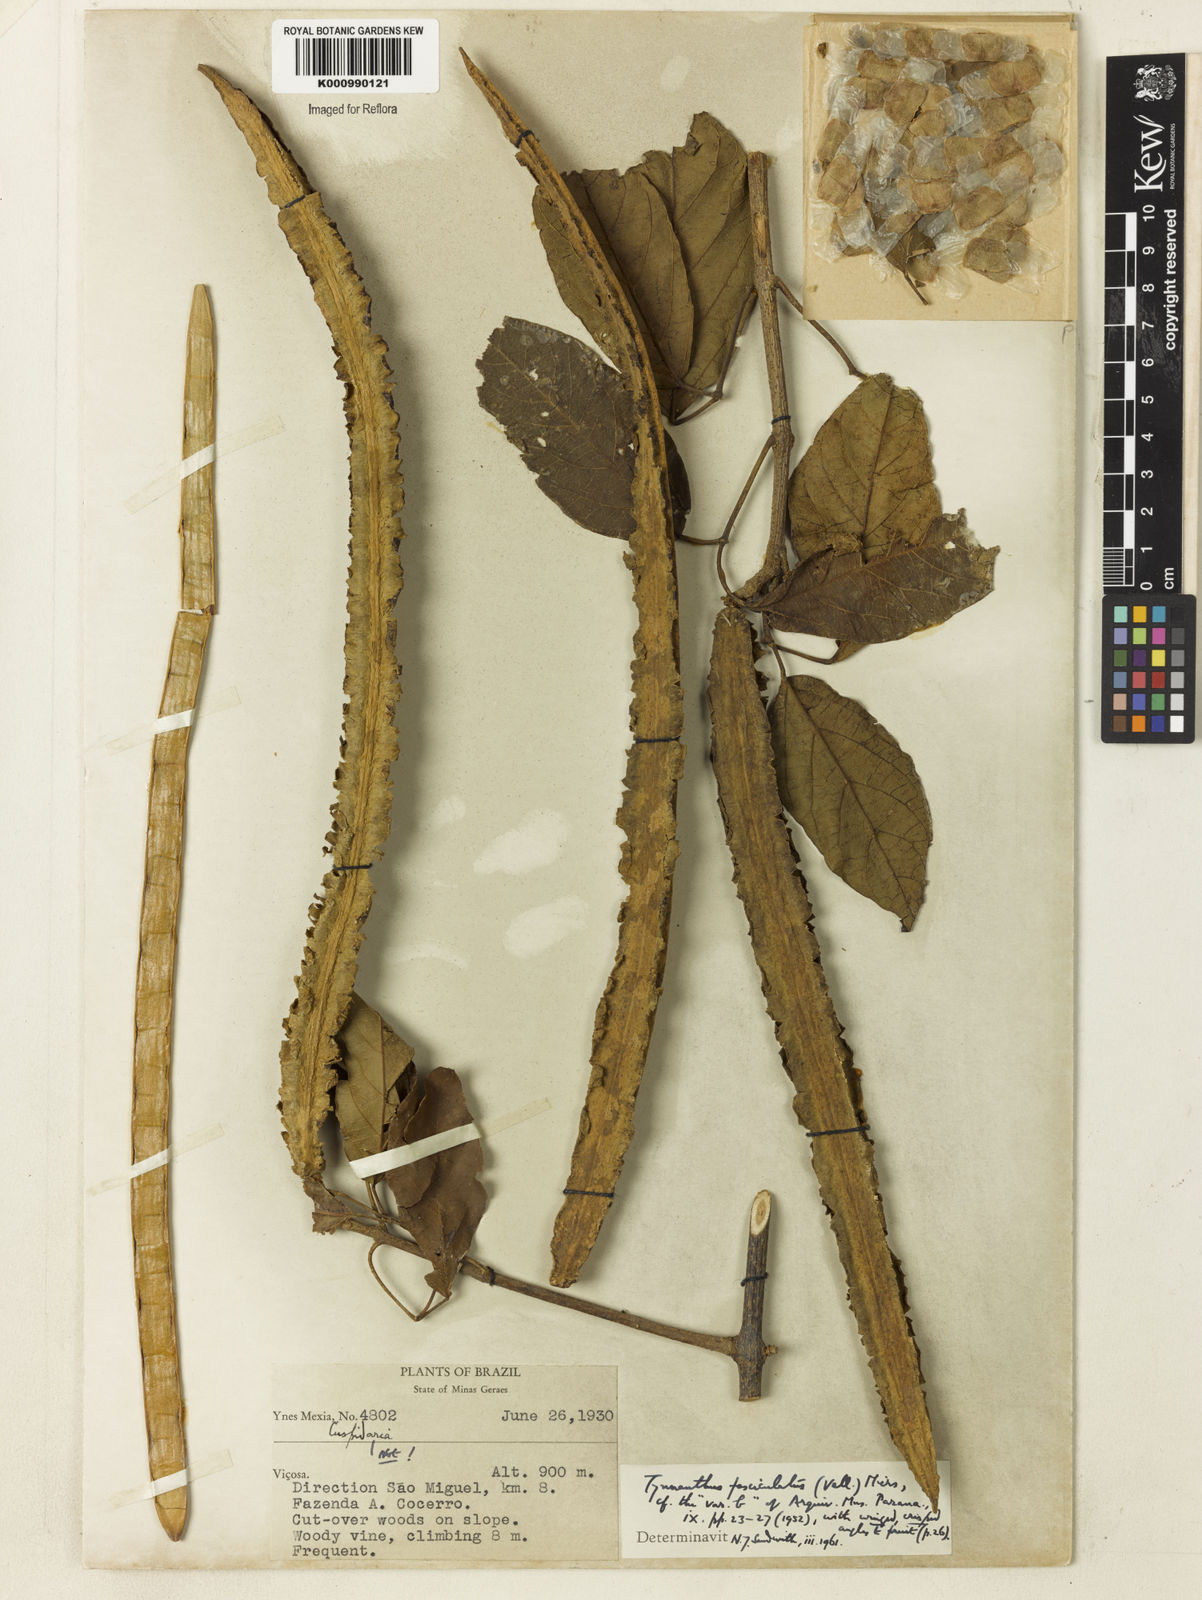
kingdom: Plantae
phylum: Tracheophyta
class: Magnoliopsida
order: Lamiales
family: Bignoniaceae
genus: Tynanthus
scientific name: Tynanthus fasciculatus
